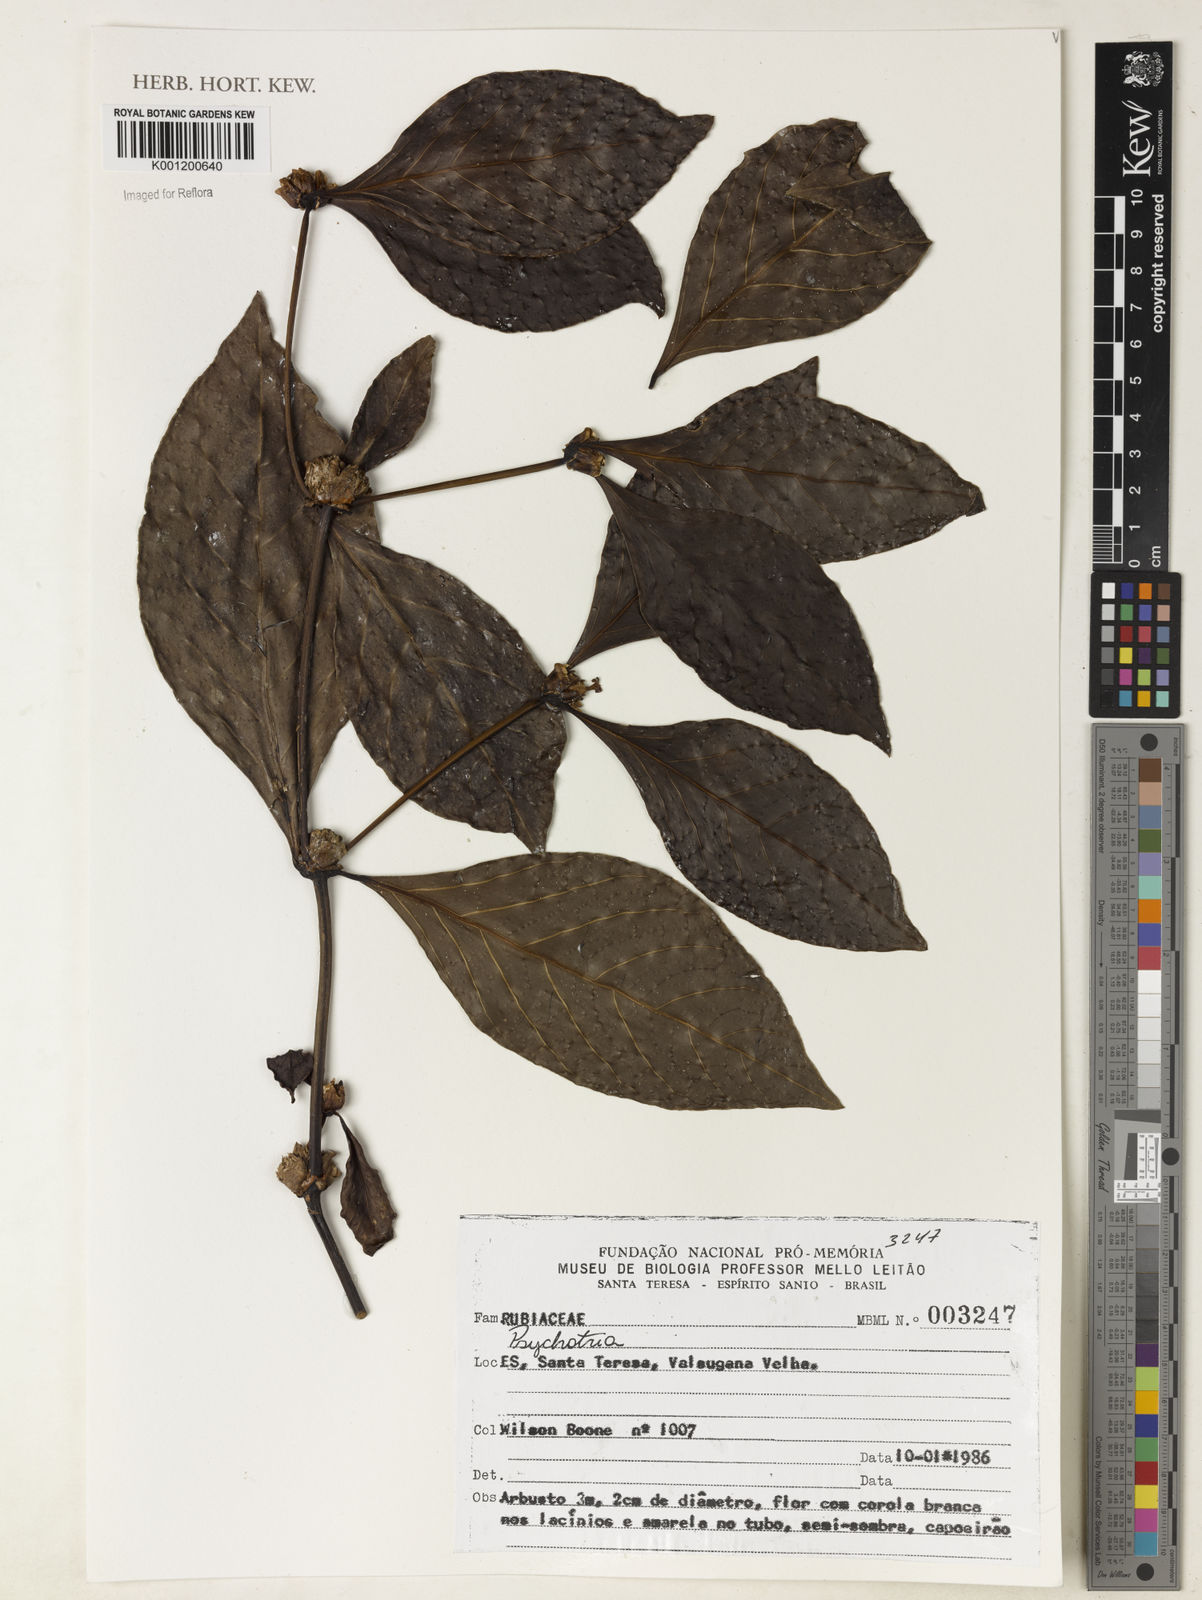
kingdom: Plantae
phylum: Tracheophyta
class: Magnoliopsida
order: Gentianales
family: Rubiaceae
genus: Psychotria
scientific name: Psychotria
